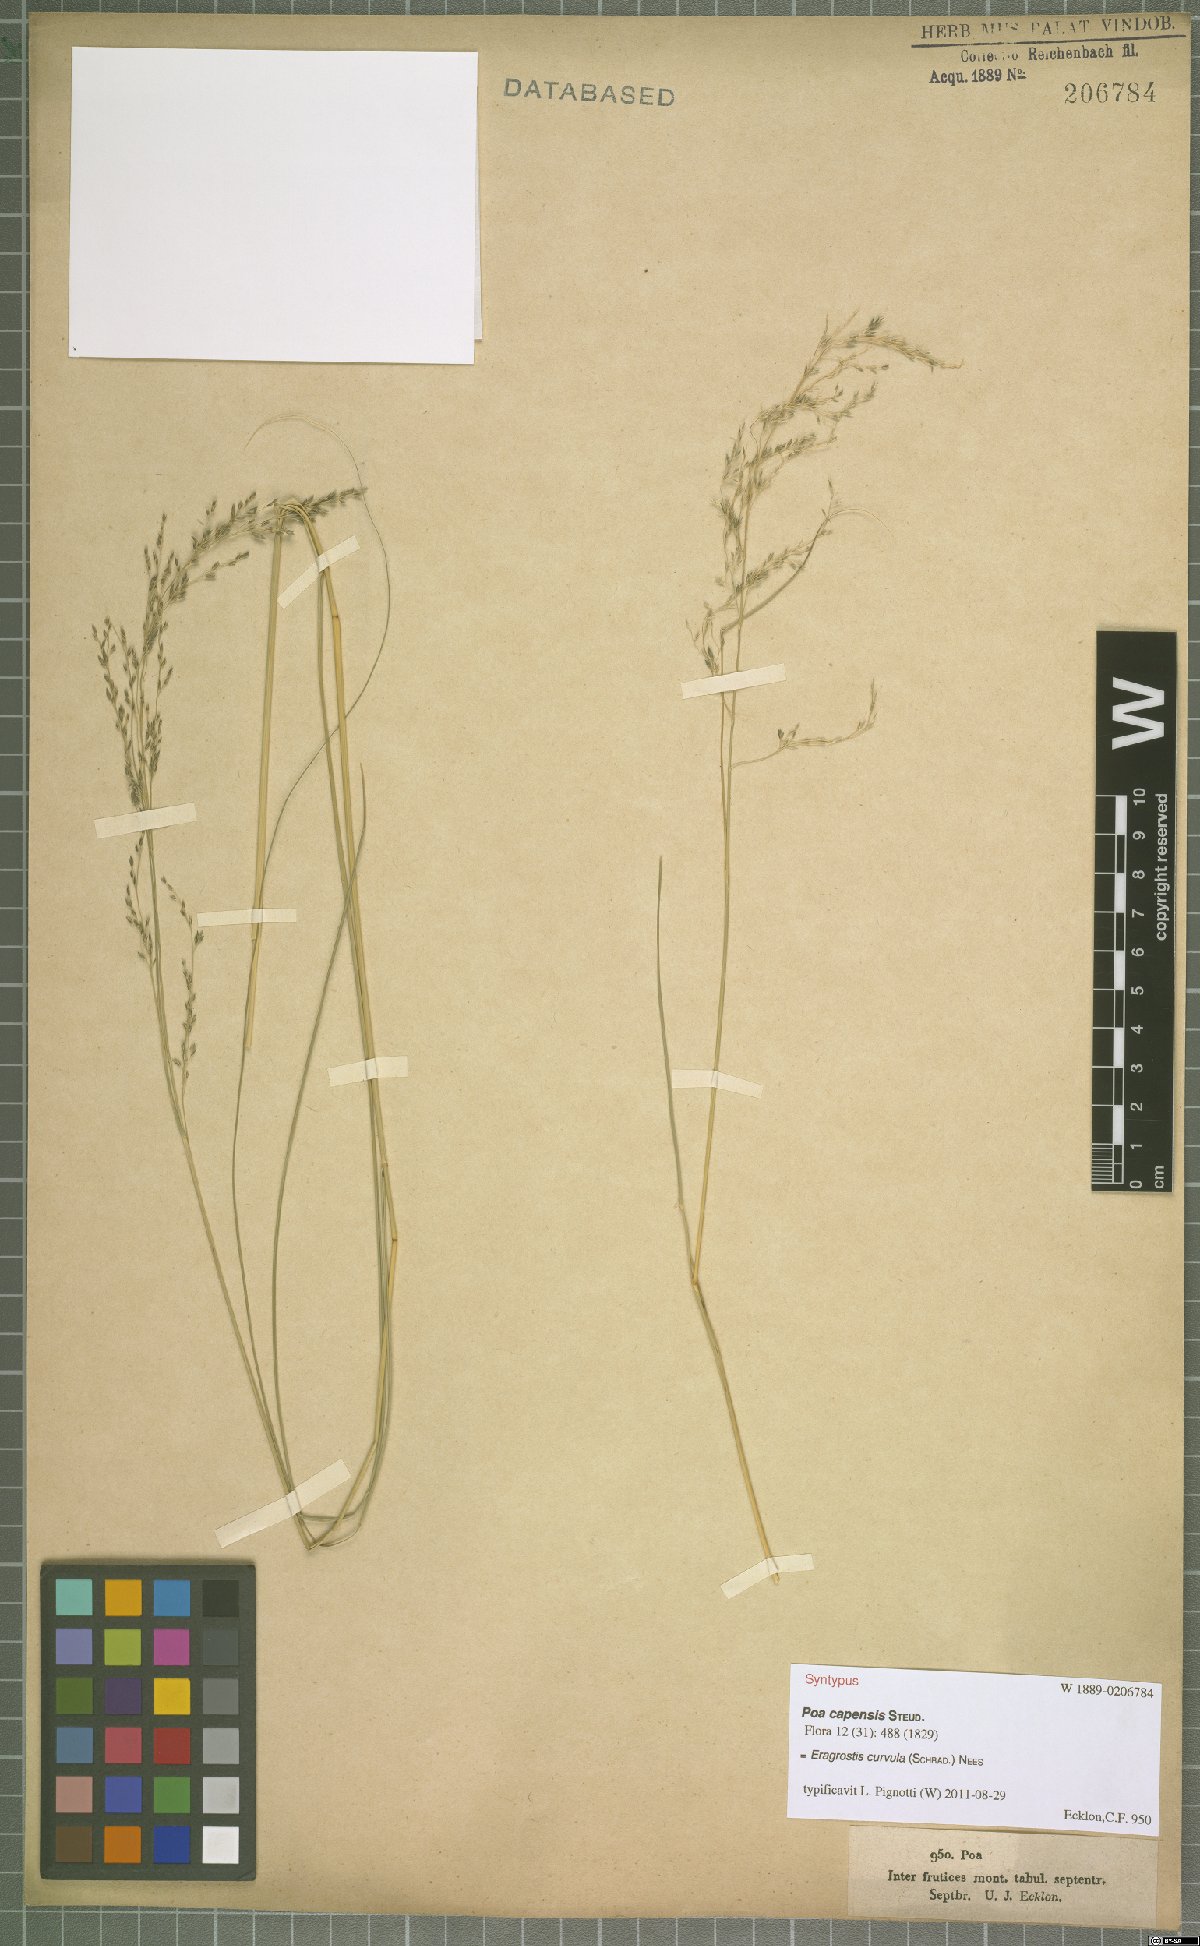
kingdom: Plantae
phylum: Tracheophyta
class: Liliopsida
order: Poales
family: Poaceae
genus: Eragrostis
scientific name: Eragrostis curvula
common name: African love-grass
